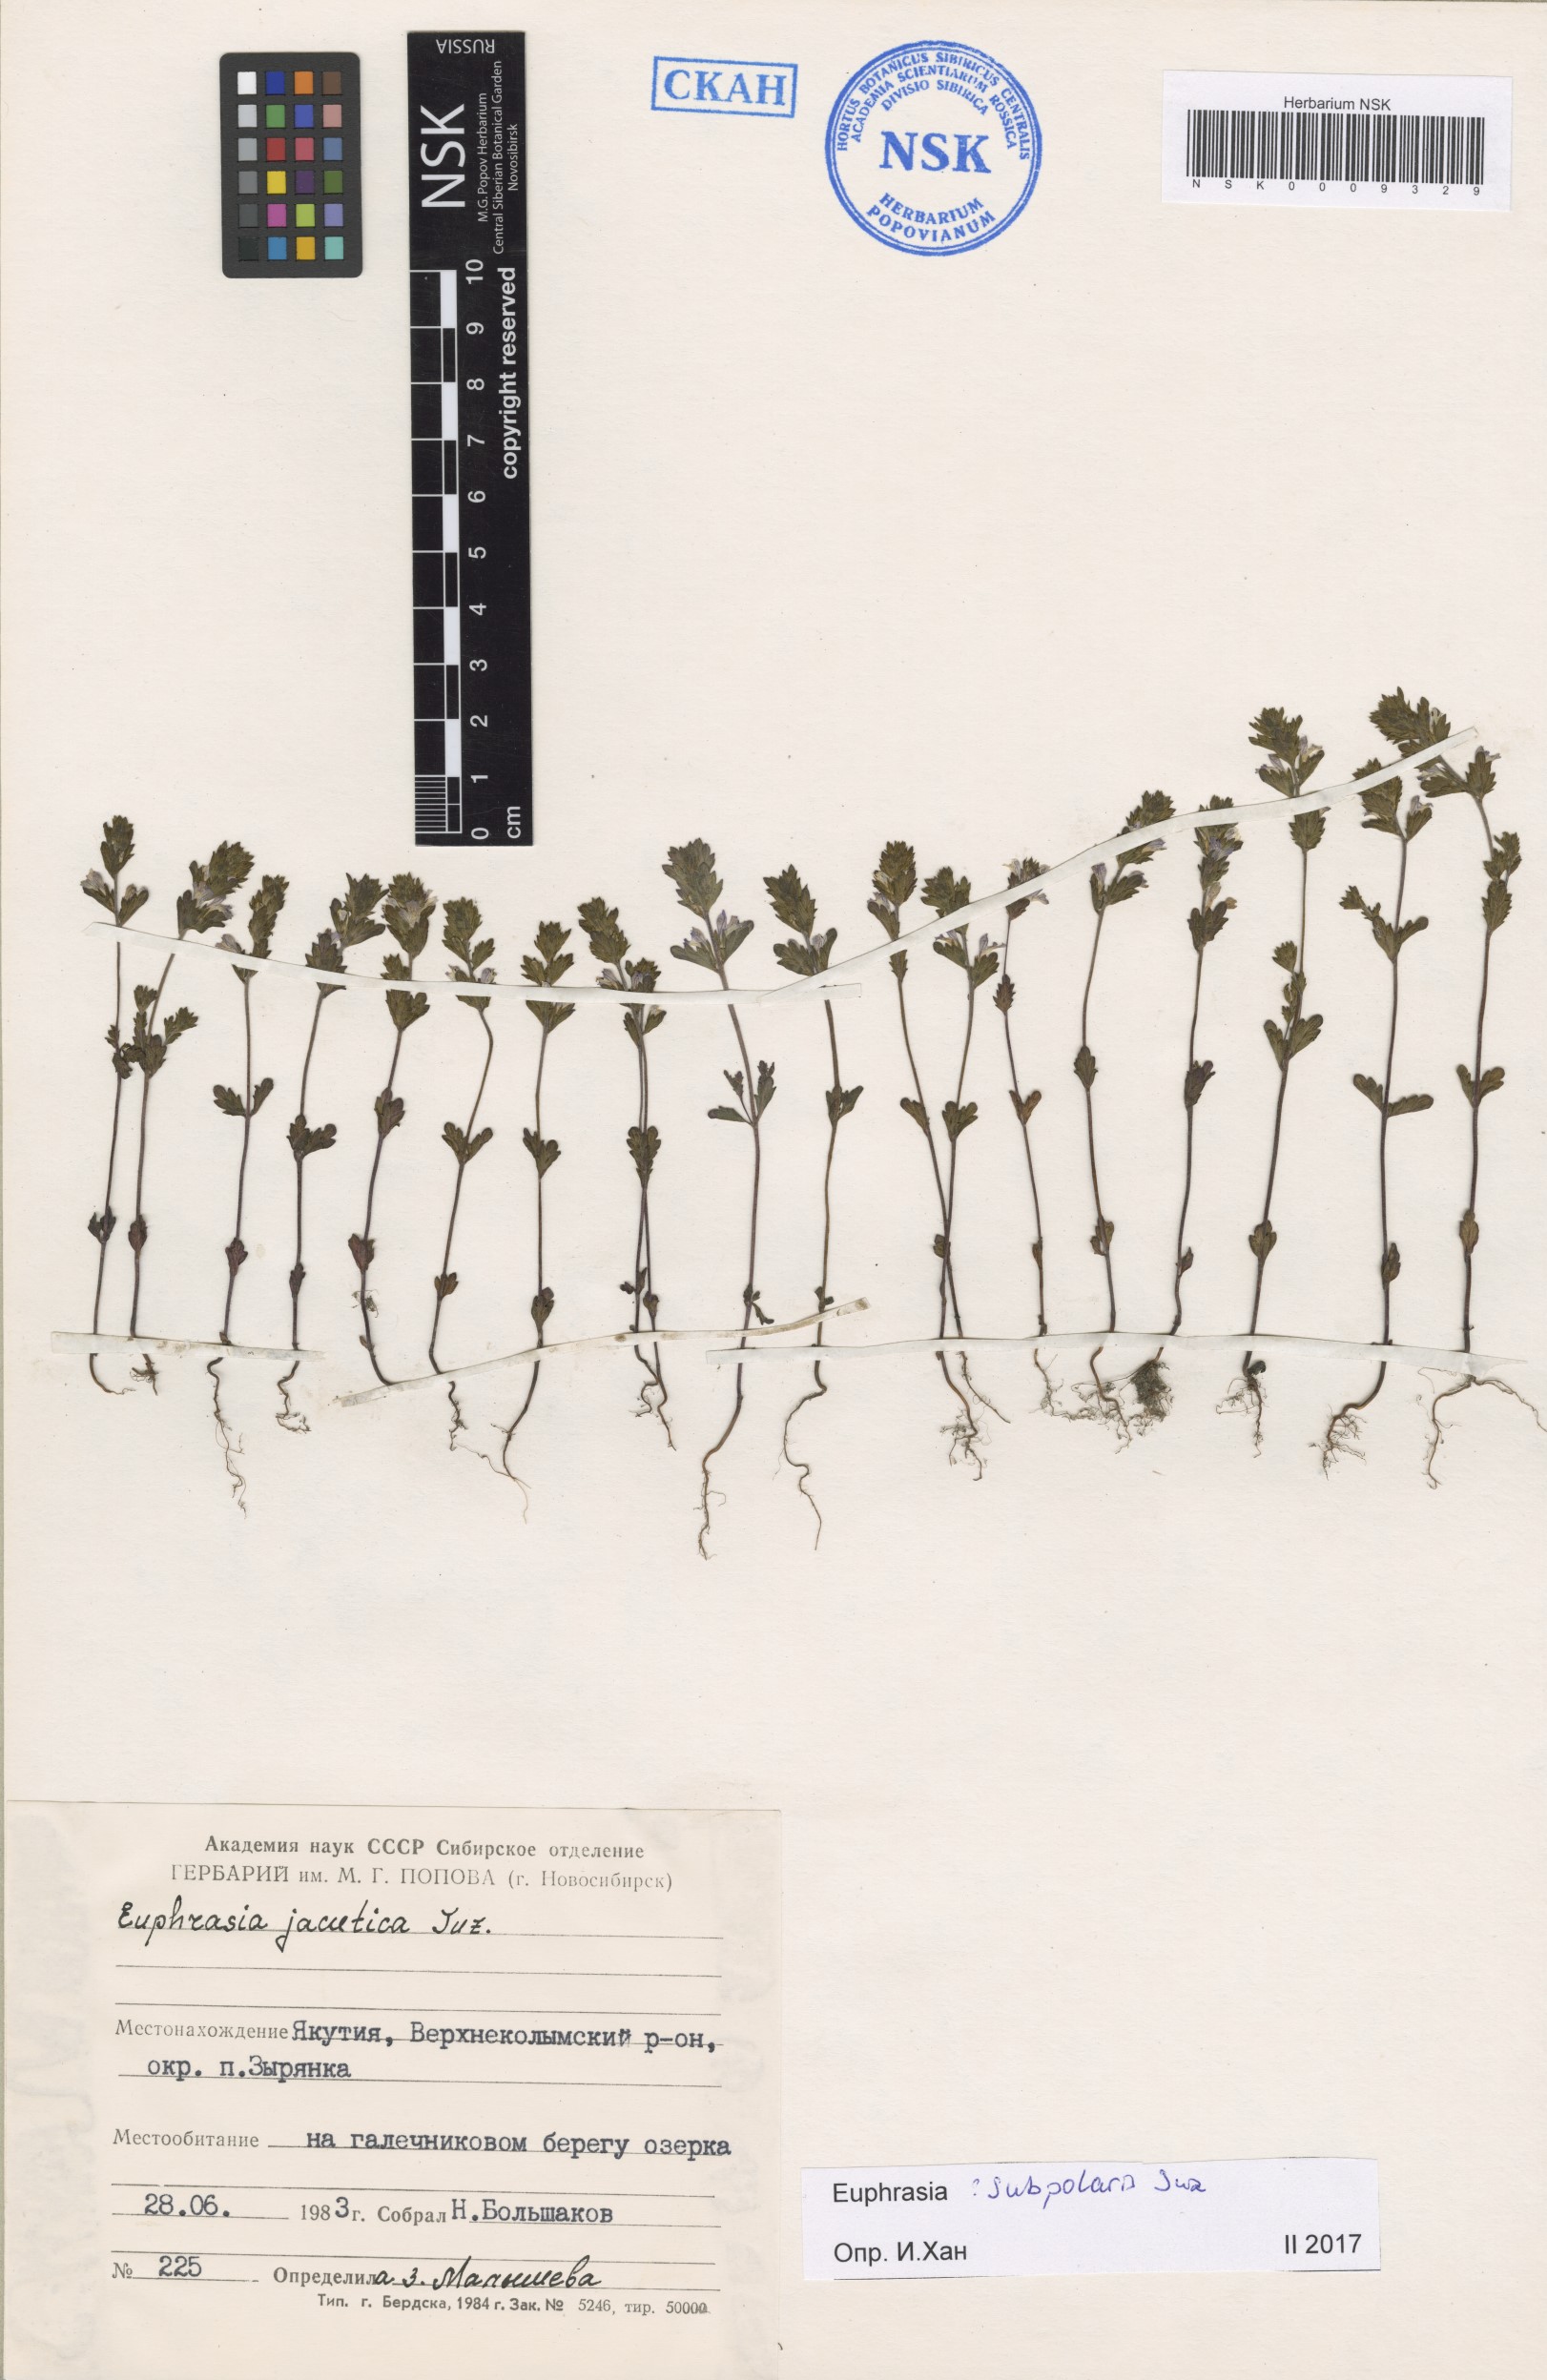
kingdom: Plantae
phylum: Tracheophyta
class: Magnoliopsida
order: Lamiales
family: Orobanchaceae
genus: Euphrasia
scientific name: Euphrasia hyperborea
